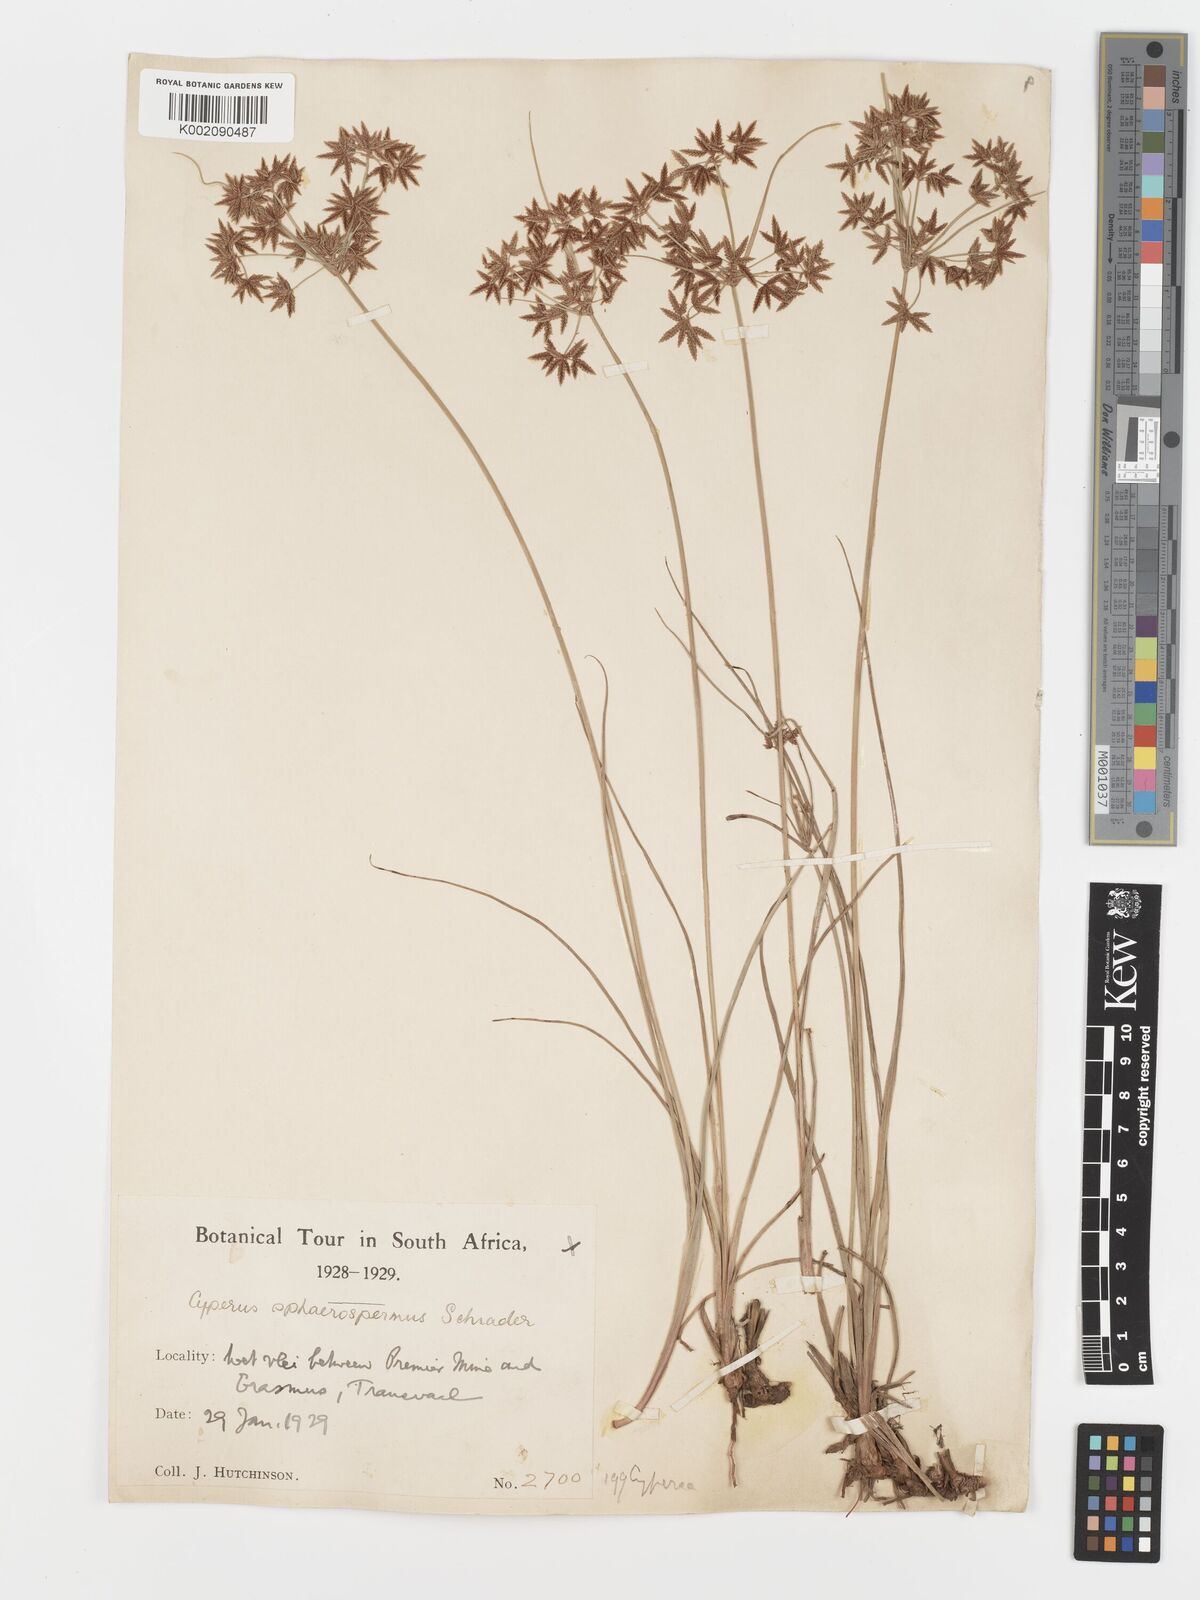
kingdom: Plantae
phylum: Tracheophyta
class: Liliopsida
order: Poales
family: Cyperaceae
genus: Cyperus
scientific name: Cyperus sphaerospermus
